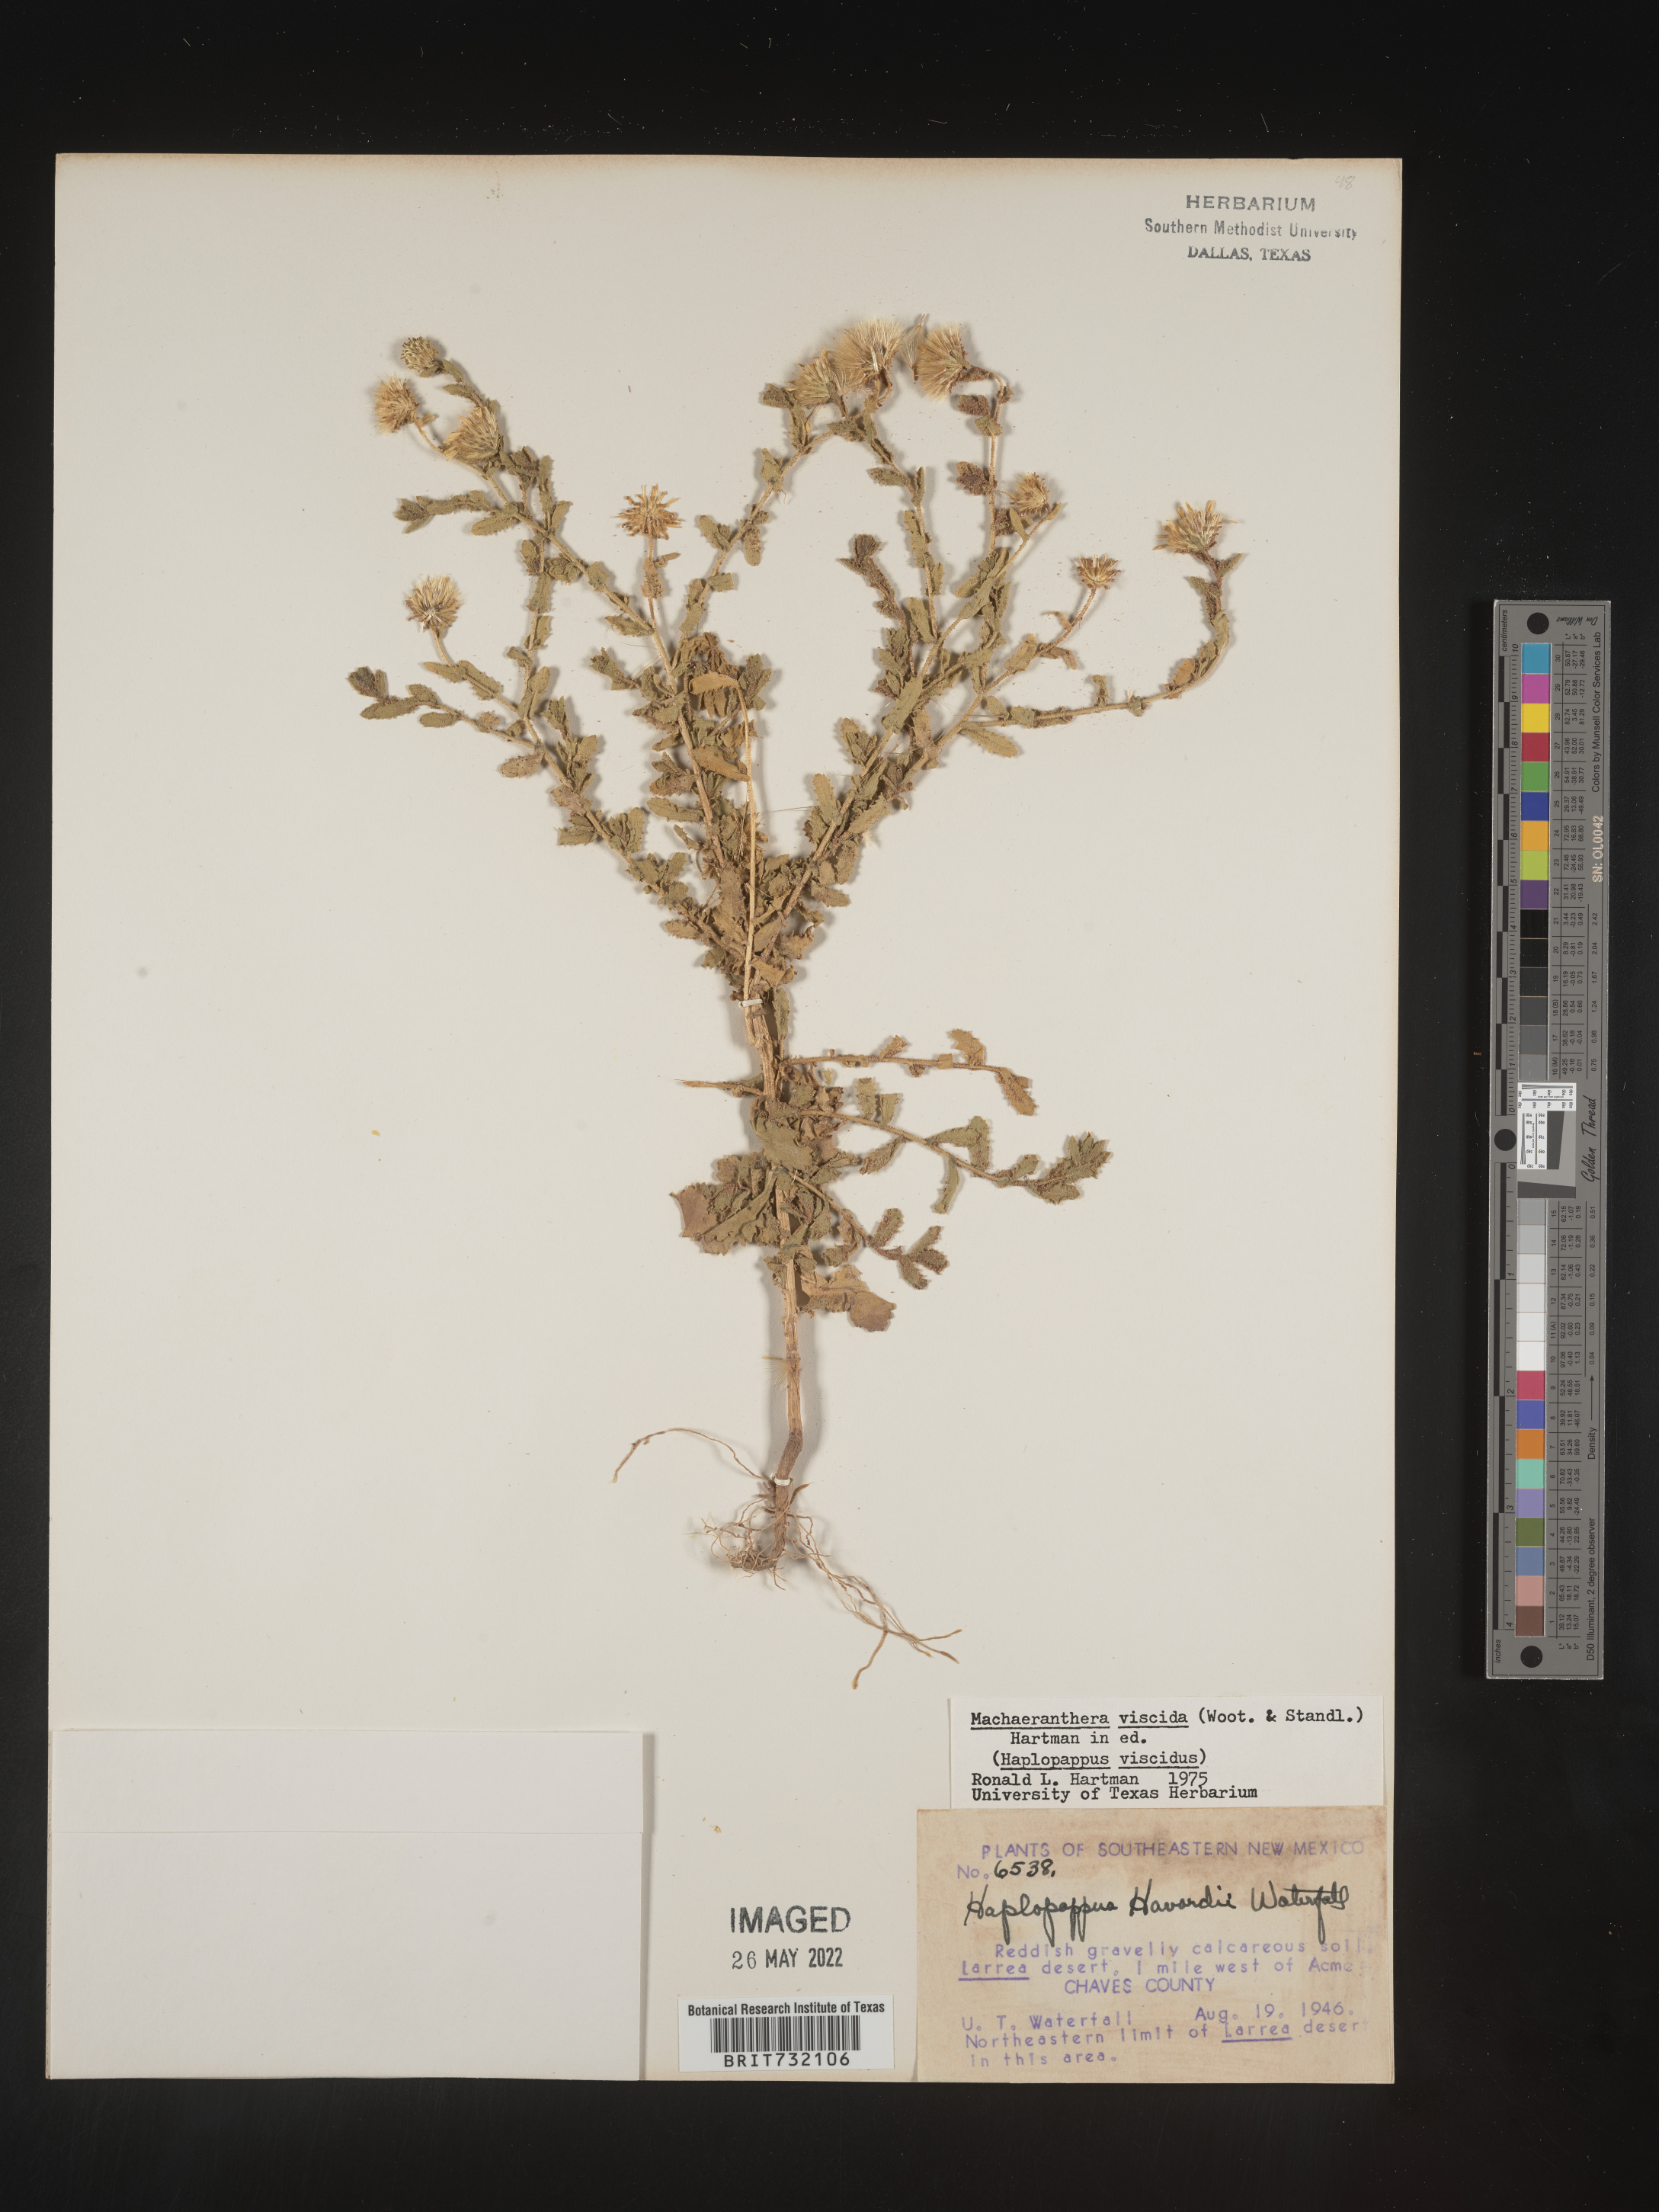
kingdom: Plantae
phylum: Tracheophyta
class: Magnoliopsida
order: Asterales
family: Asteraceae
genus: Xanthisma
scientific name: Xanthisma viscidum
